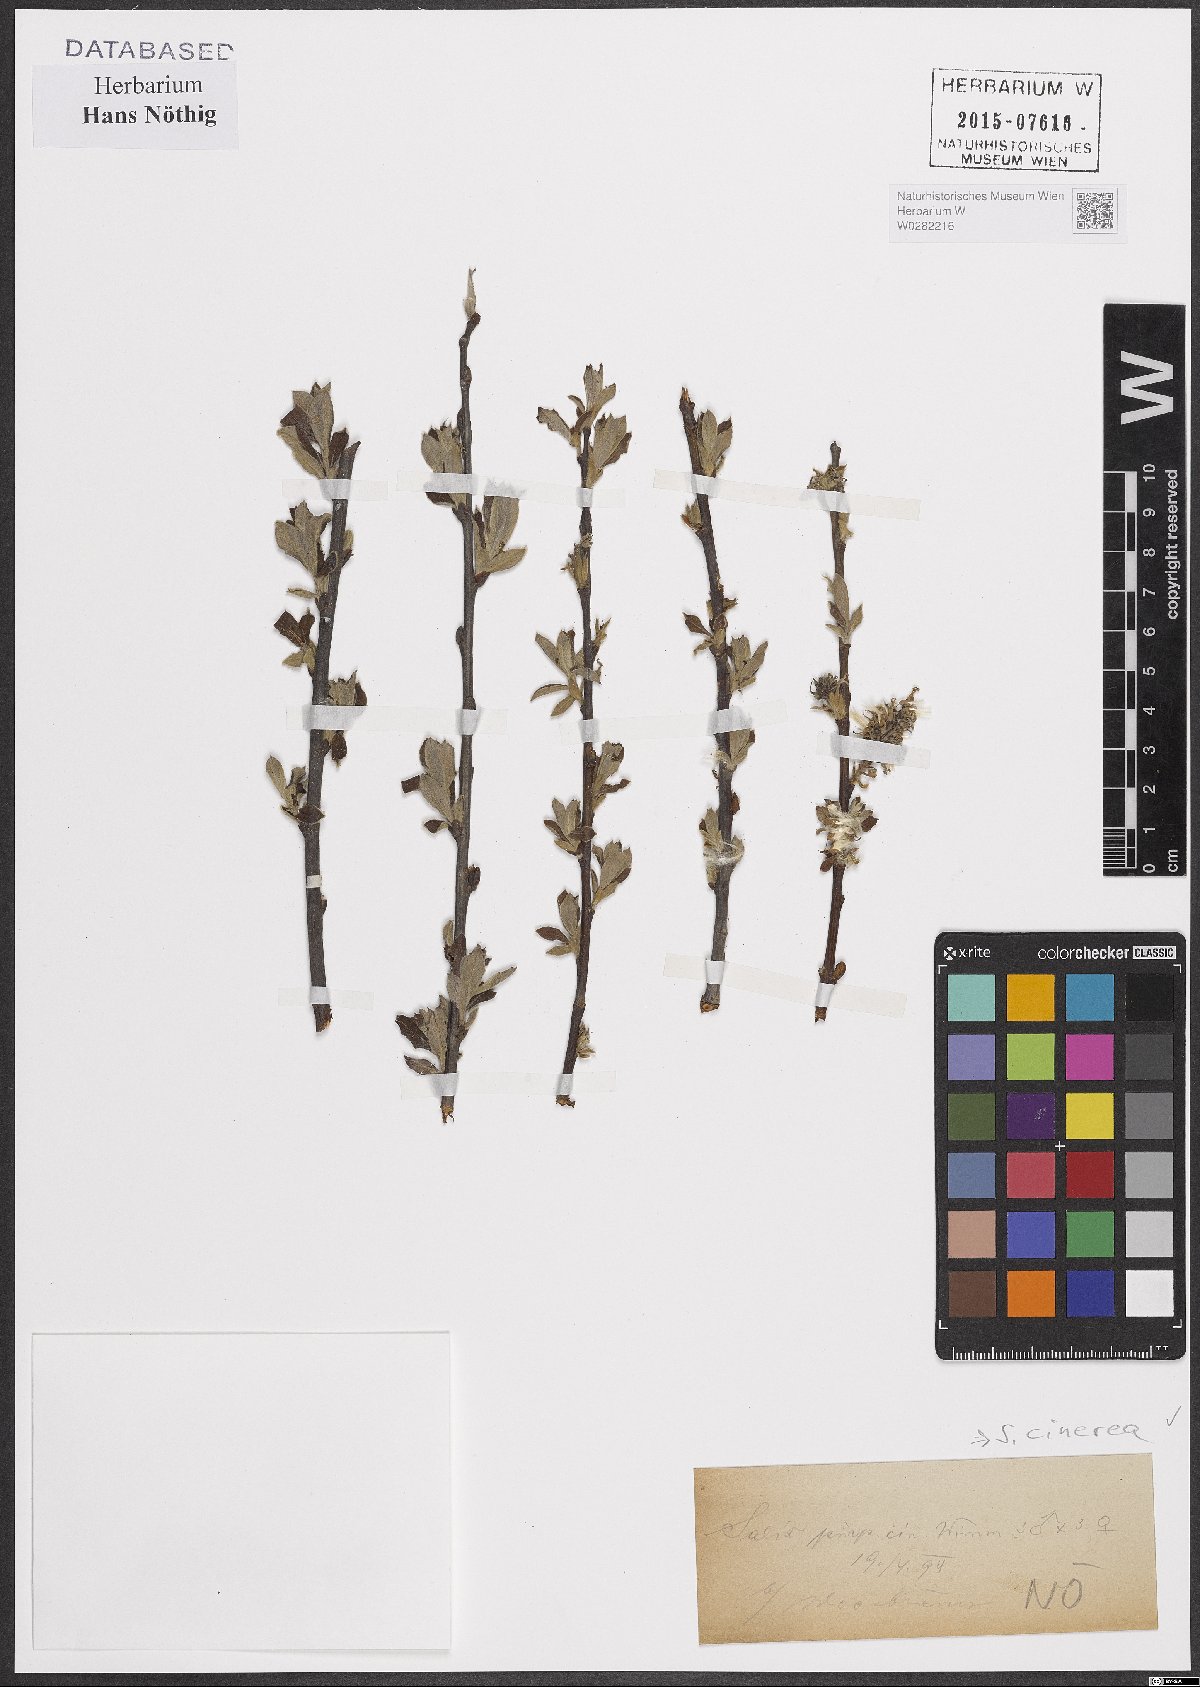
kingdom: Plantae
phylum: Tracheophyta
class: Magnoliopsida
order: Malpighiales
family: Salicaceae
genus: Salix
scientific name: Salix cinerea
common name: Common sallow
